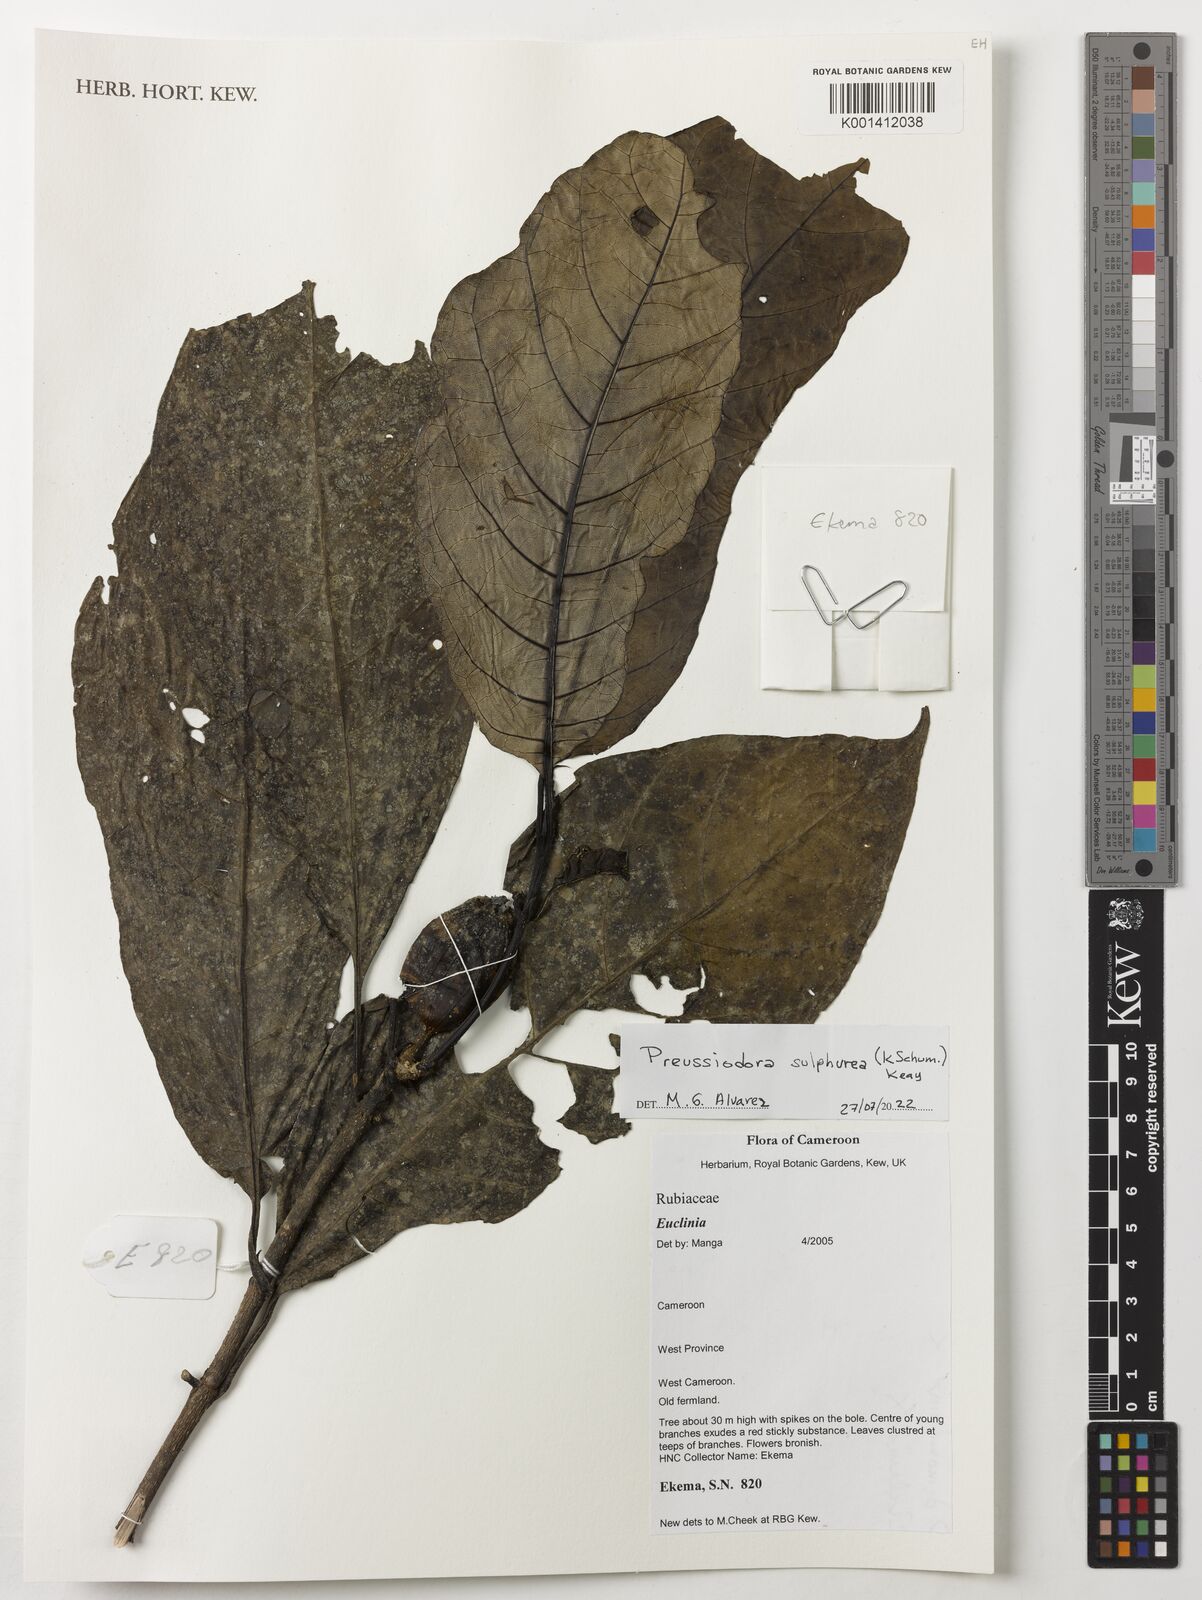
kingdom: Plantae
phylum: Tracheophyta
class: Magnoliopsida
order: Gentianales
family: Rubiaceae
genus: Preussiodora
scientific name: Preussiodora sulphurea
